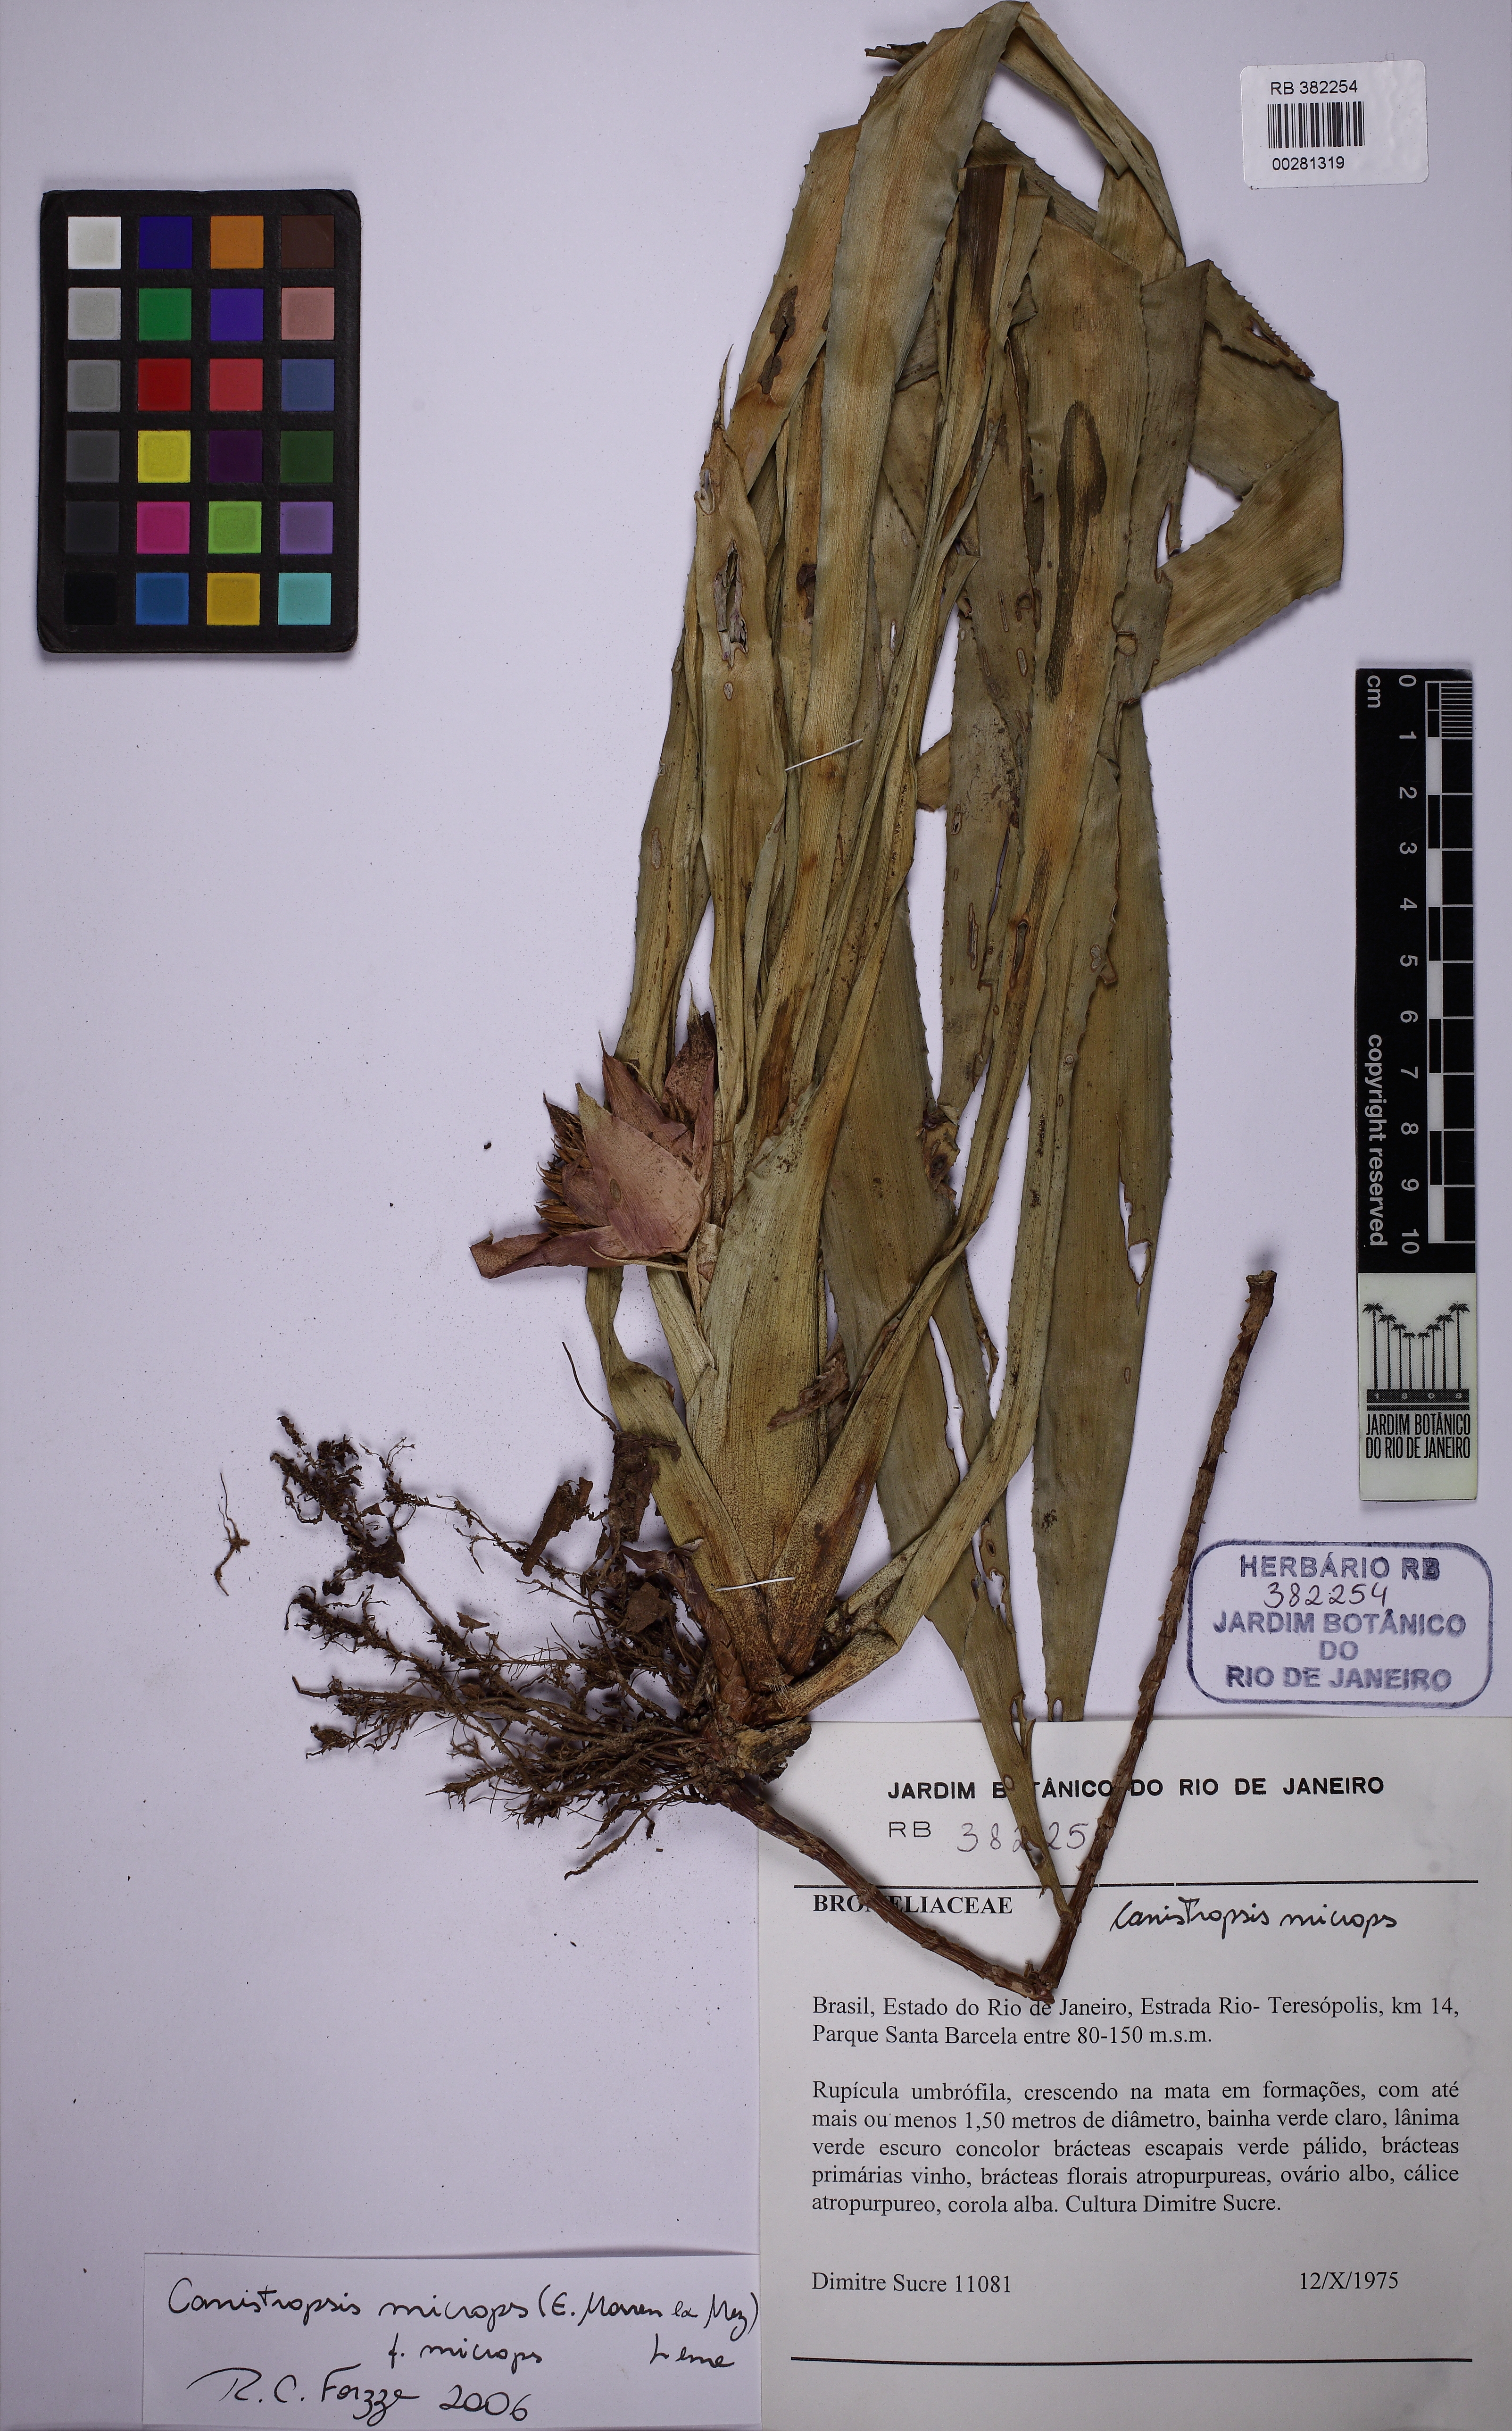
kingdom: Plantae
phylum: Tracheophyta
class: Liliopsida
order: Poales
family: Bromeliaceae
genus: Canistropsis
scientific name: Canistropsis microps
